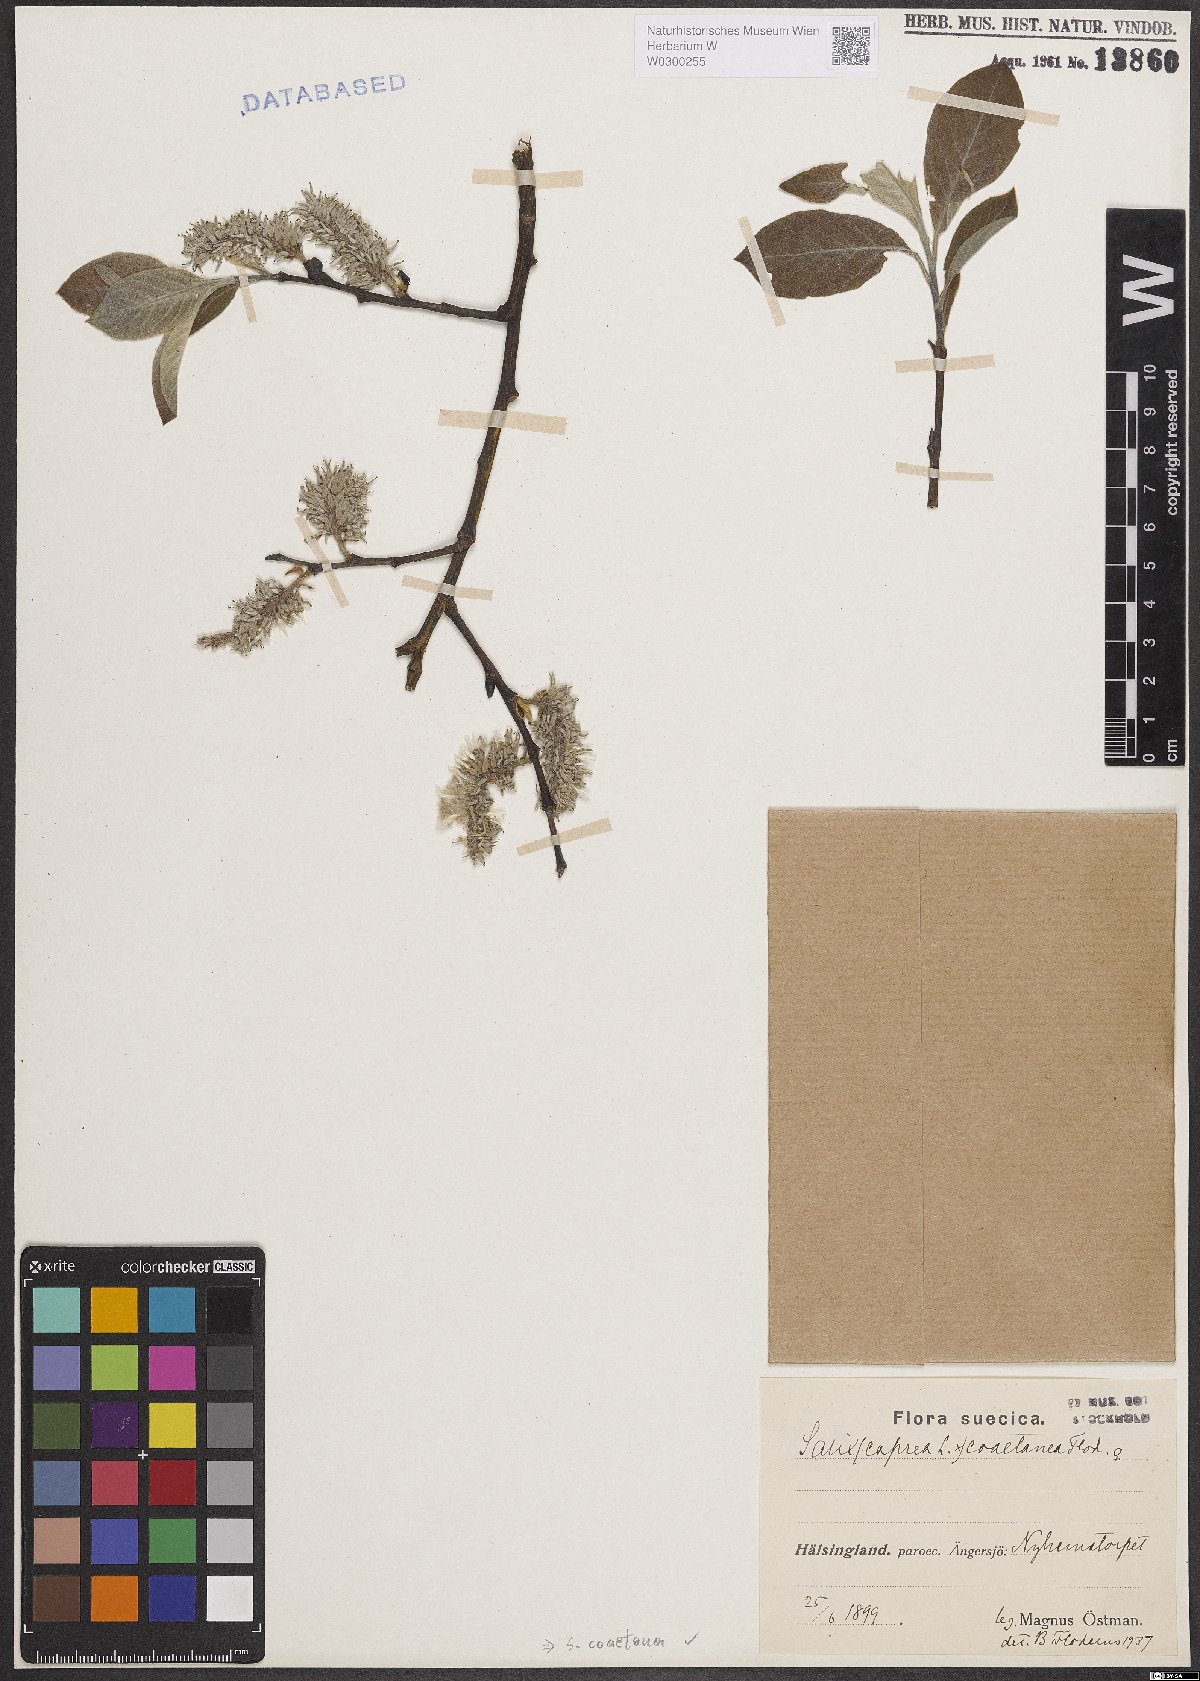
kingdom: Plantae
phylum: Tracheophyta
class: Magnoliopsida
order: Malpighiales
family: Salicaceae
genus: Salix
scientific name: Salix caprea
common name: Goat willow
